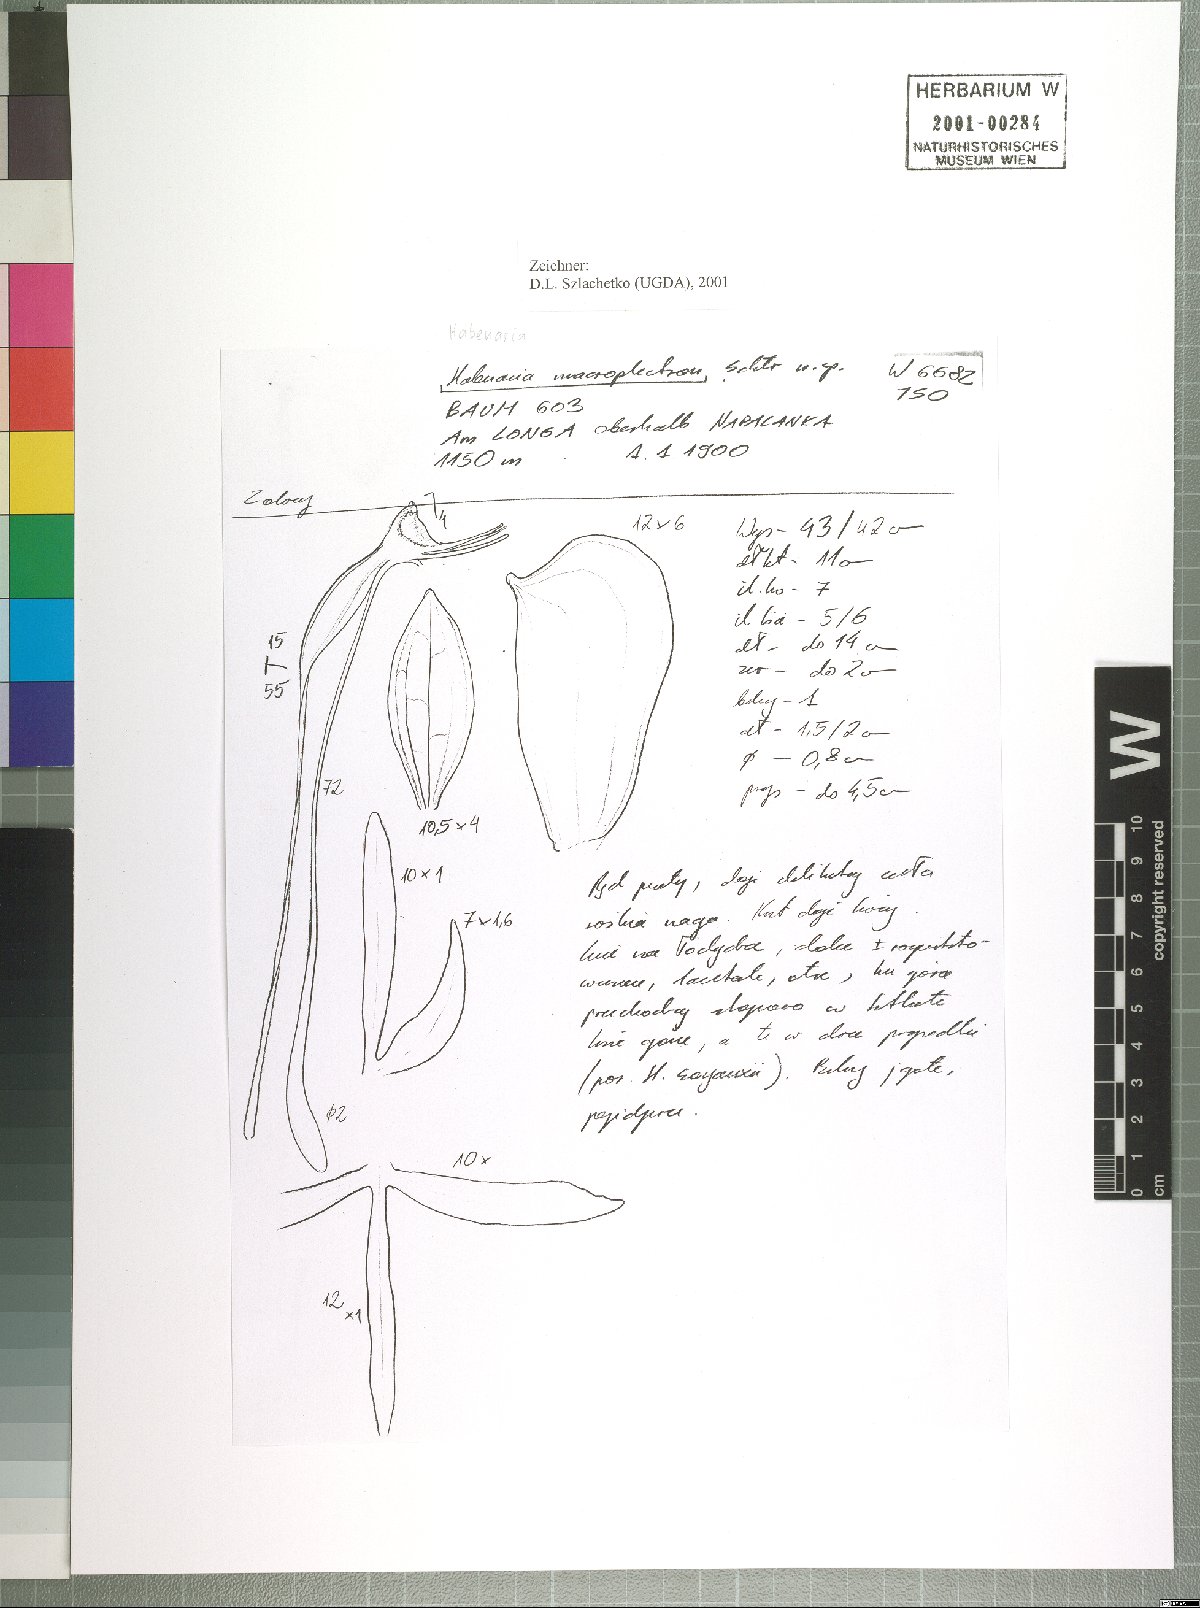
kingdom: Plantae
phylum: Tracheophyta
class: Liliopsida
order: Asparagales
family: Orchidaceae
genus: Habenaria
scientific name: Habenaria macroplectron
